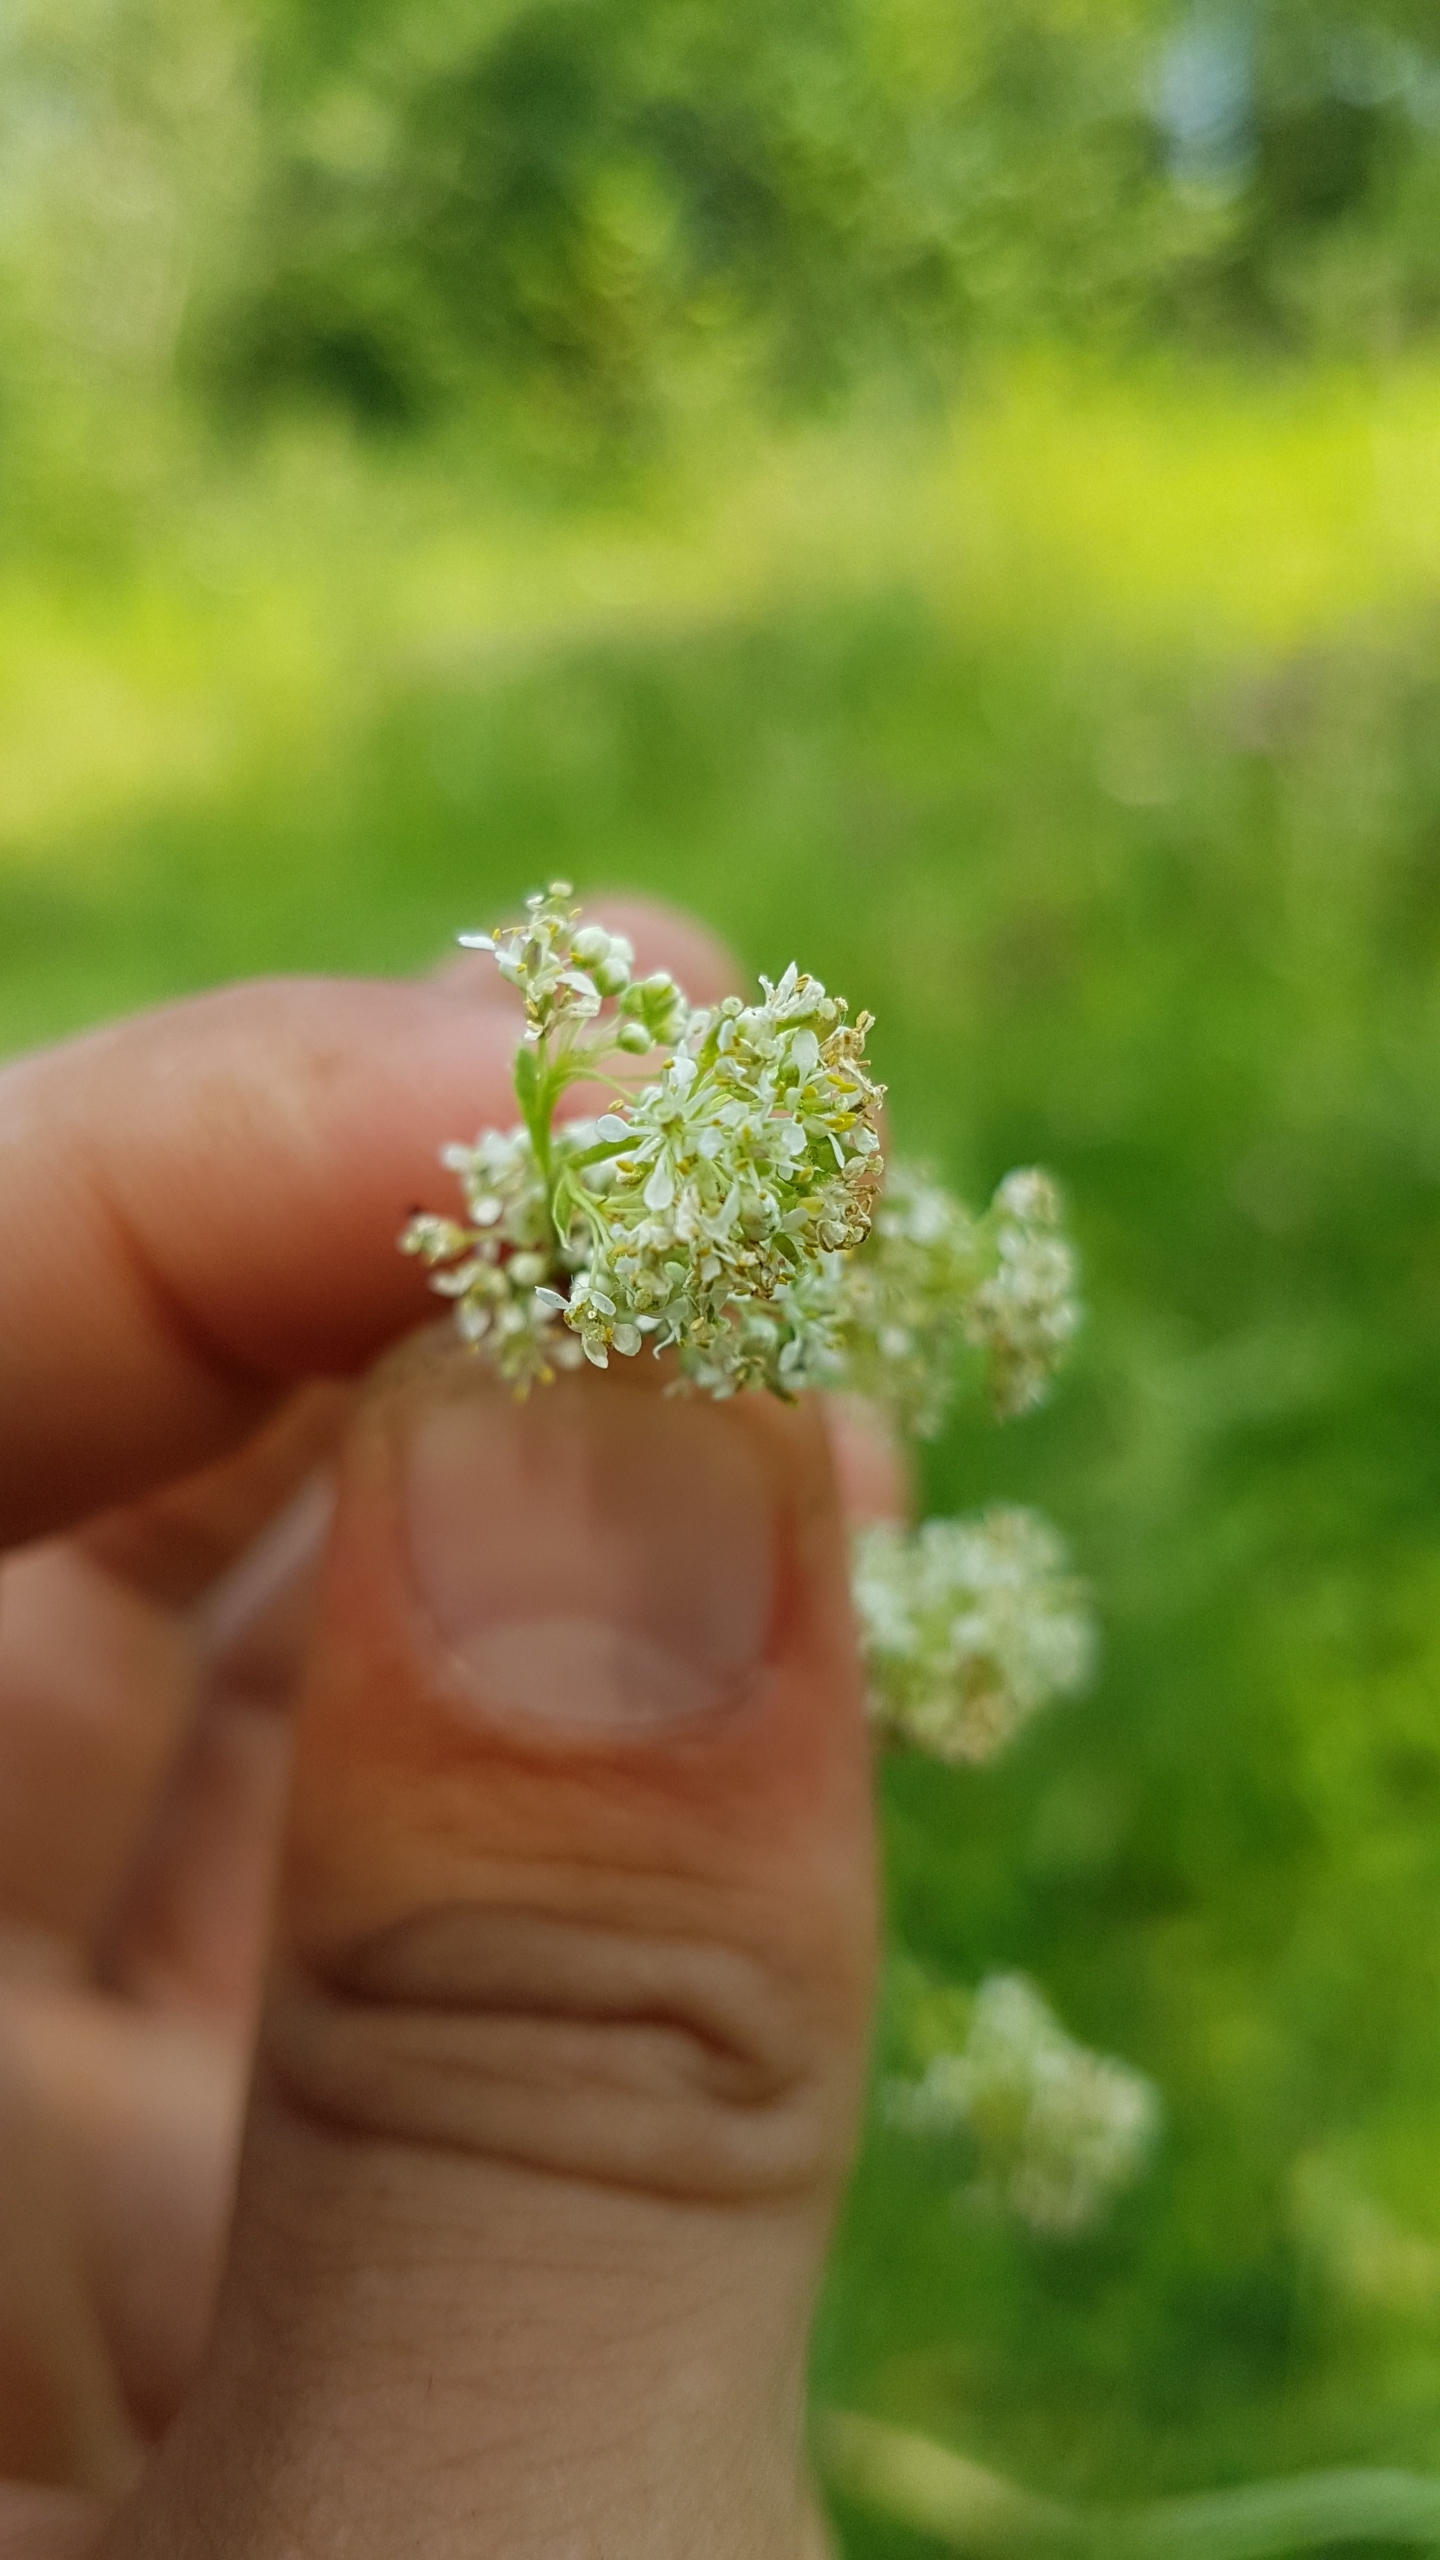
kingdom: Plantae
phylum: Tracheophyta
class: Magnoliopsida
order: Brassicales
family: Brassicaceae
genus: Lepidium
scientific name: Lepidium latifolium
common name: Strand-karse
